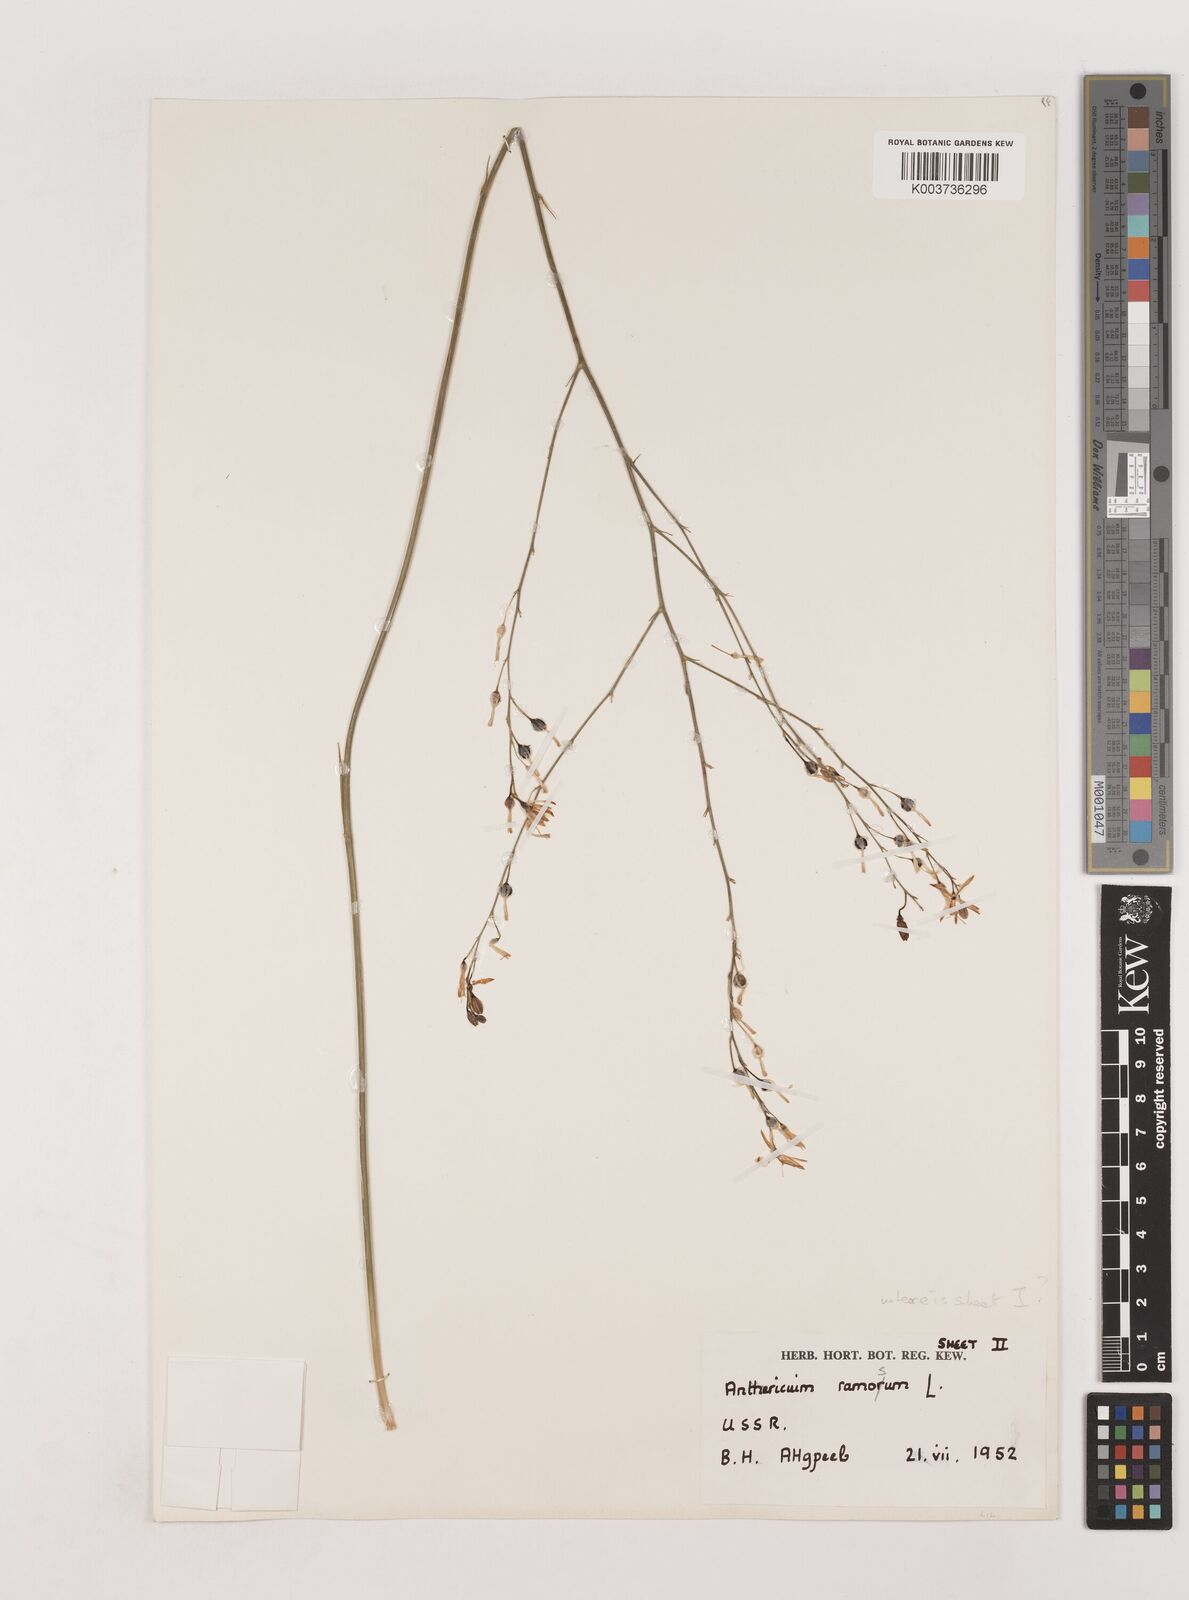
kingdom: Plantae
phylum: Tracheophyta
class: Liliopsida
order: Asparagales
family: Asparagaceae
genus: Anthericum
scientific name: Anthericum ramosum
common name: Branched st. bernard's-lily
